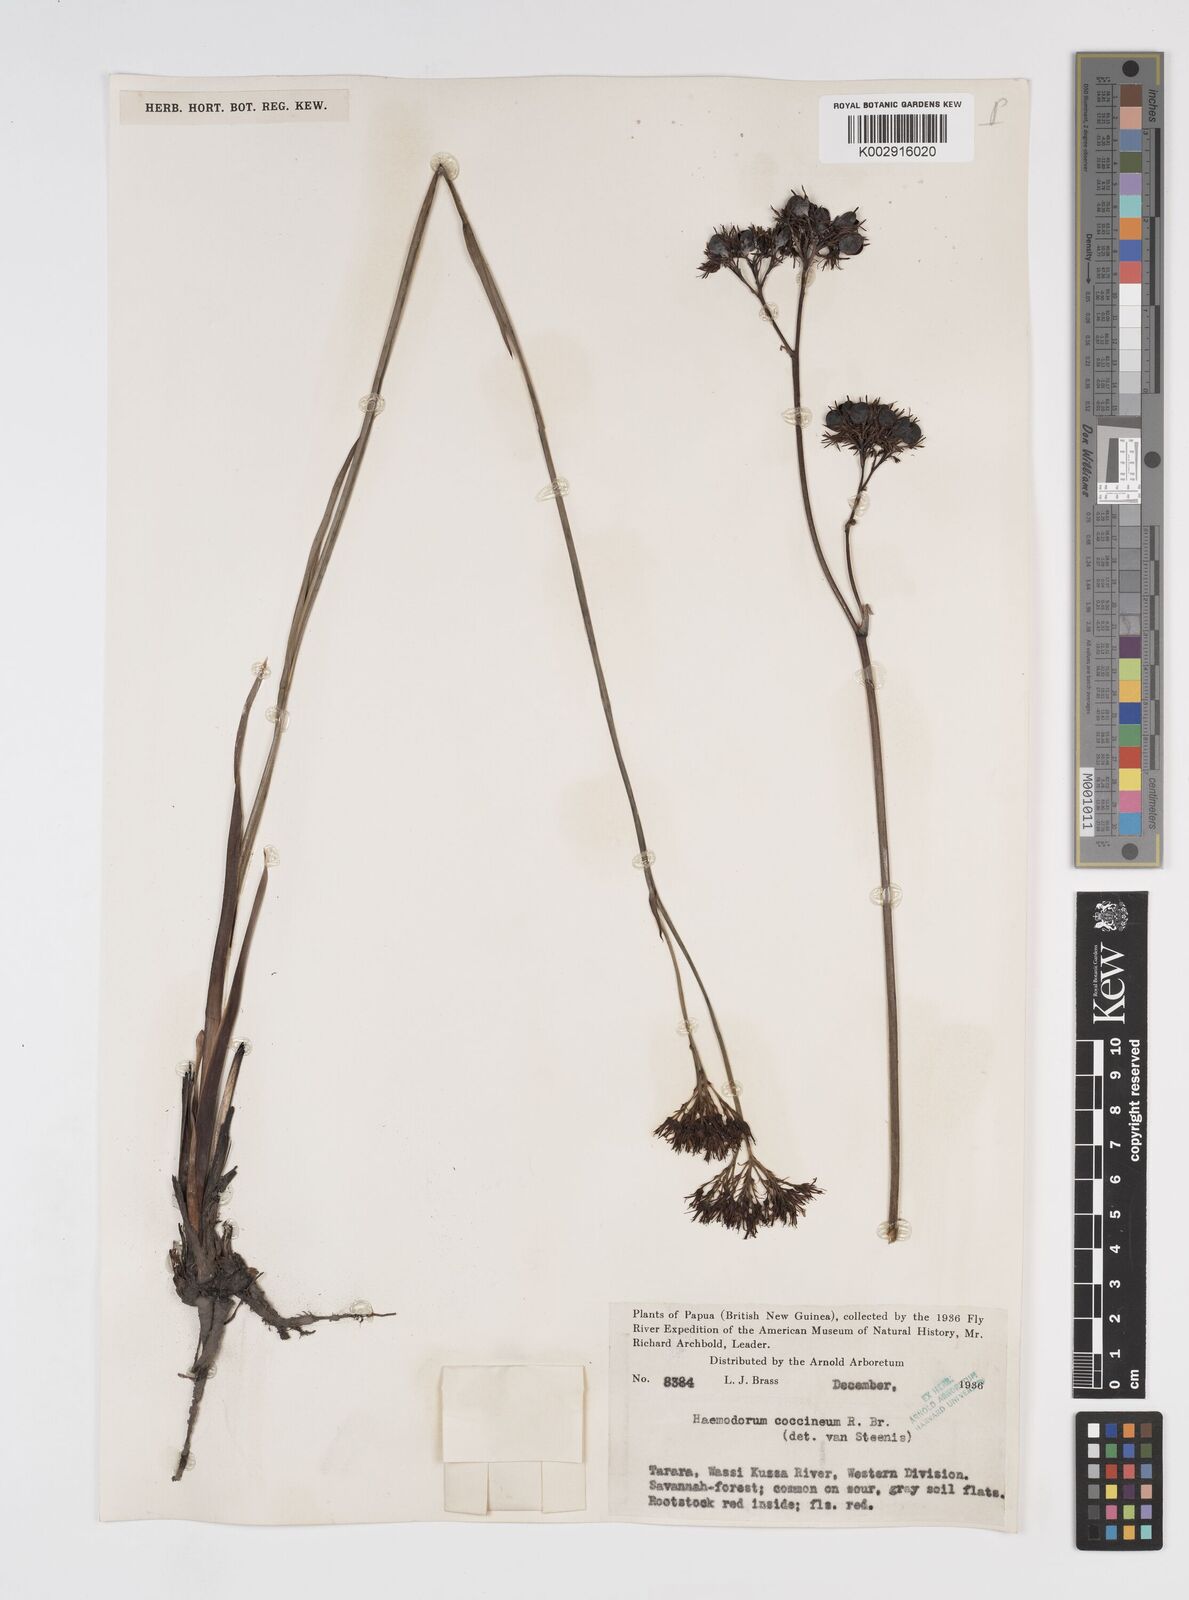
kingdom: Plantae
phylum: Tracheophyta
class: Liliopsida
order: Commelinales
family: Haemodoraceae
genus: Haemodorum
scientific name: Haemodorum corymbosum
